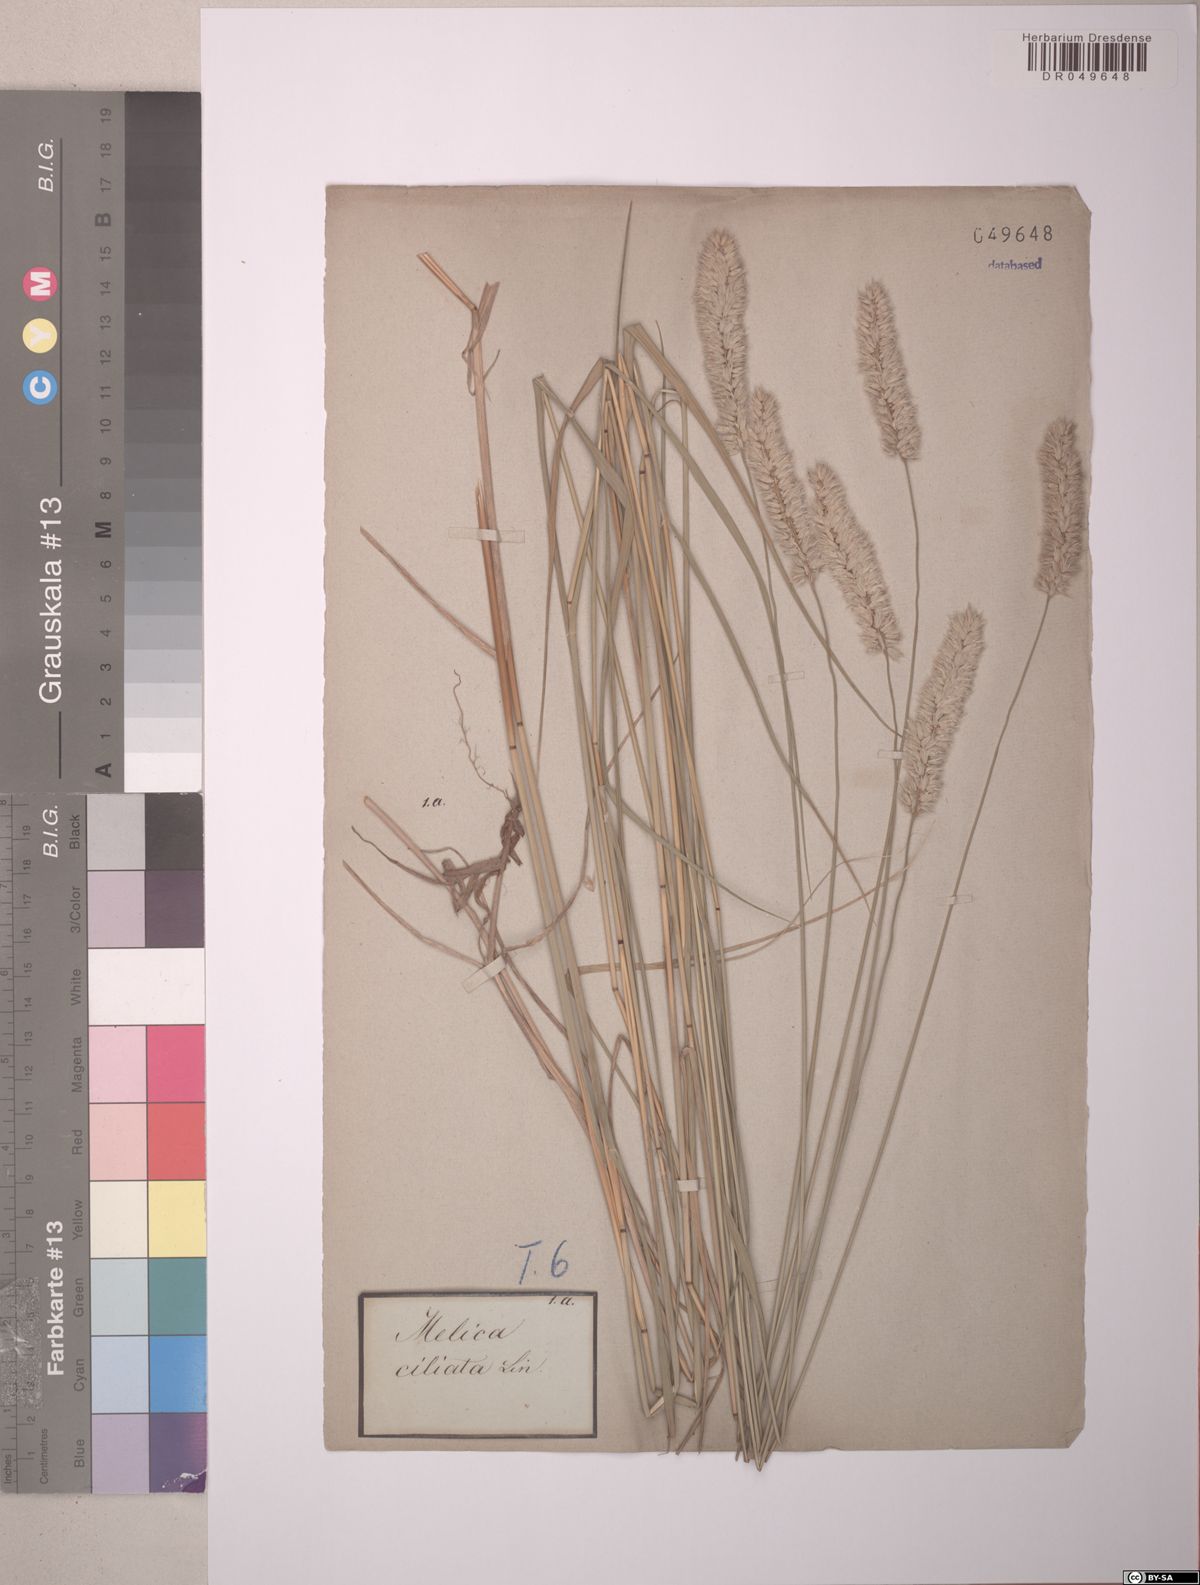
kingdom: Plantae
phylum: Tracheophyta
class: Liliopsida
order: Poales
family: Poaceae
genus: Melica
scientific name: Melica ciliata
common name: Hairy melicgrass
